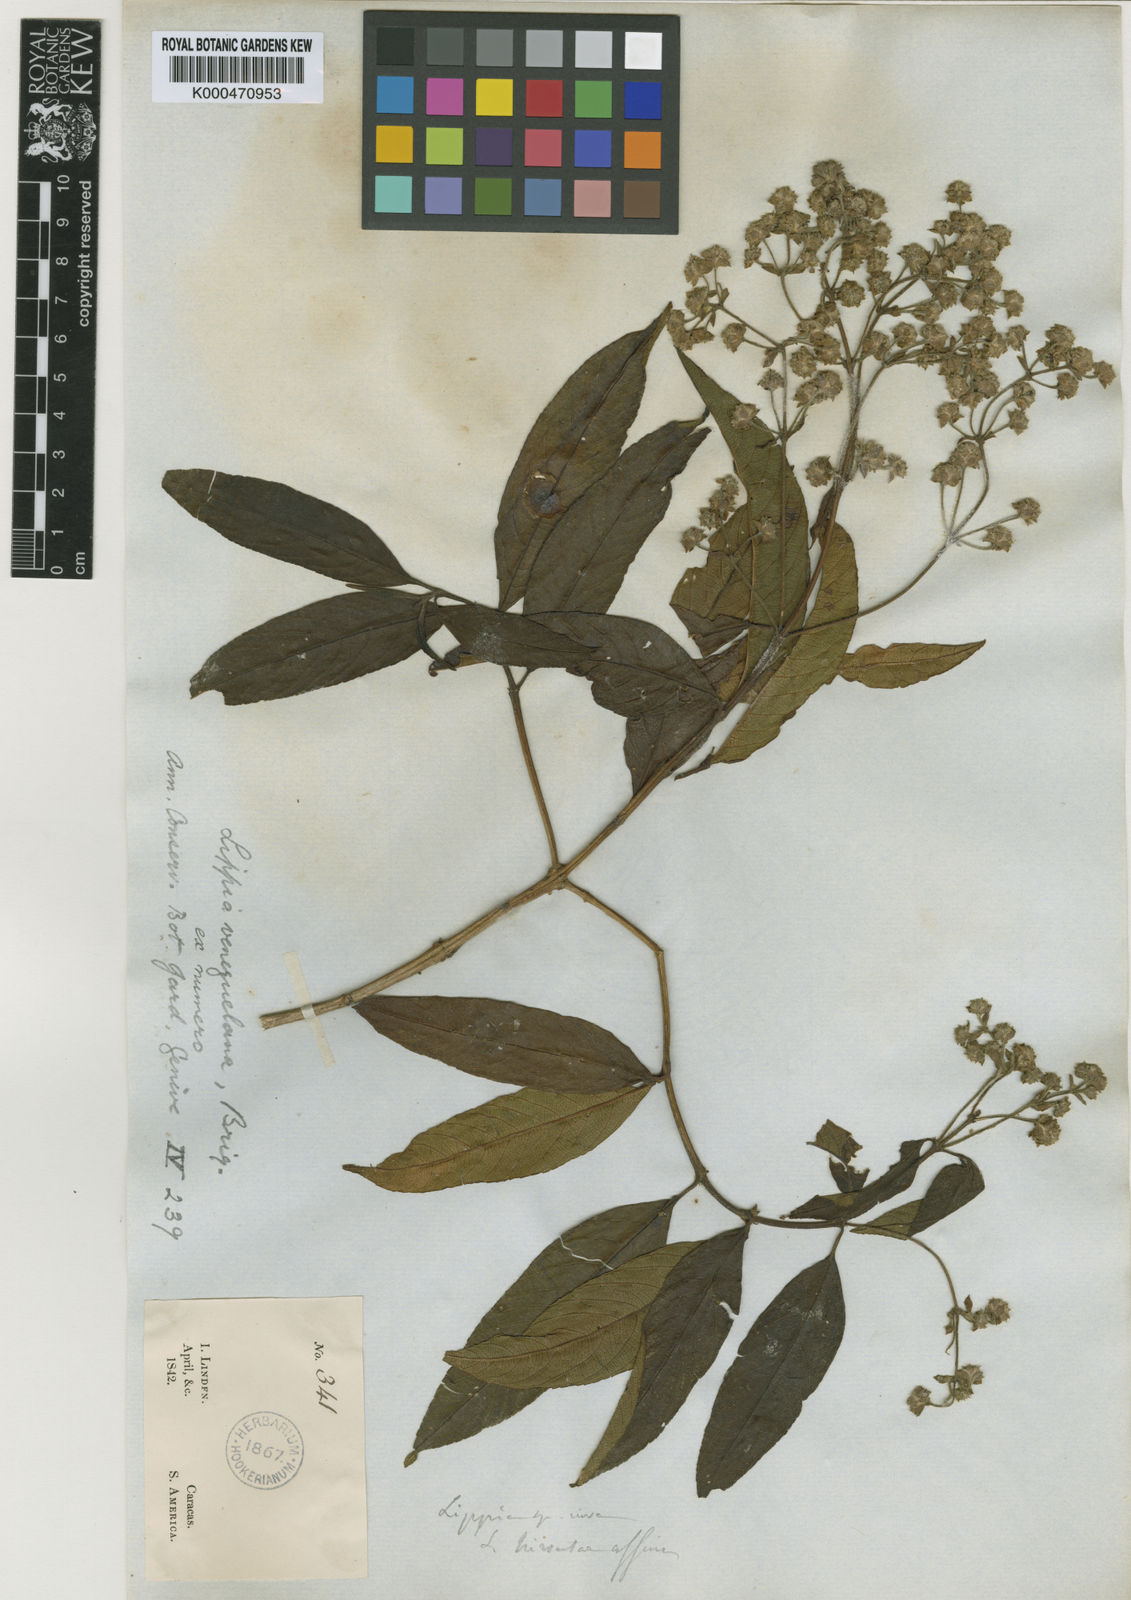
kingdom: Plantae
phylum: Tracheophyta
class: Magnoliopsida
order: Lamiales
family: Verbenaceae
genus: Lippia
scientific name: Lippia schlimii
